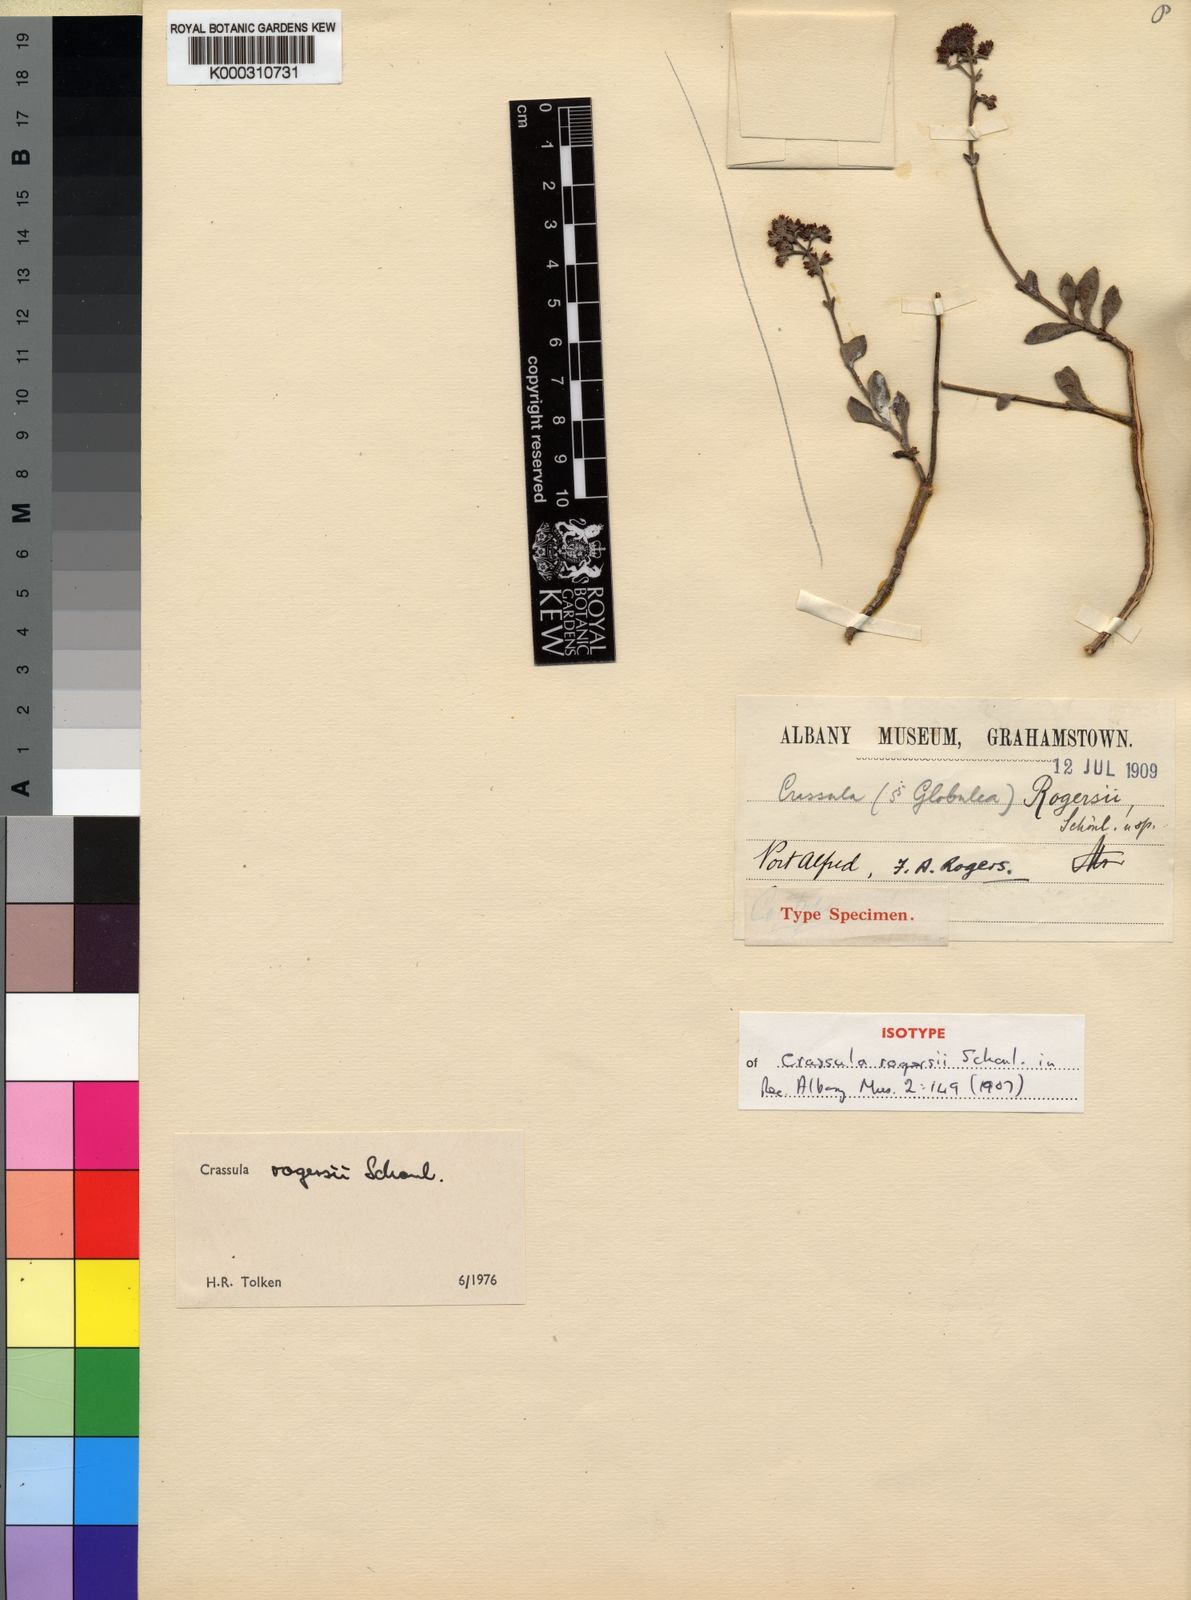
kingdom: Plantae
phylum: Tracheophyta
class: Magnoliopsida
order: Saxifragales
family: Crassulaceae
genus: Crassula
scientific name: Crassula
